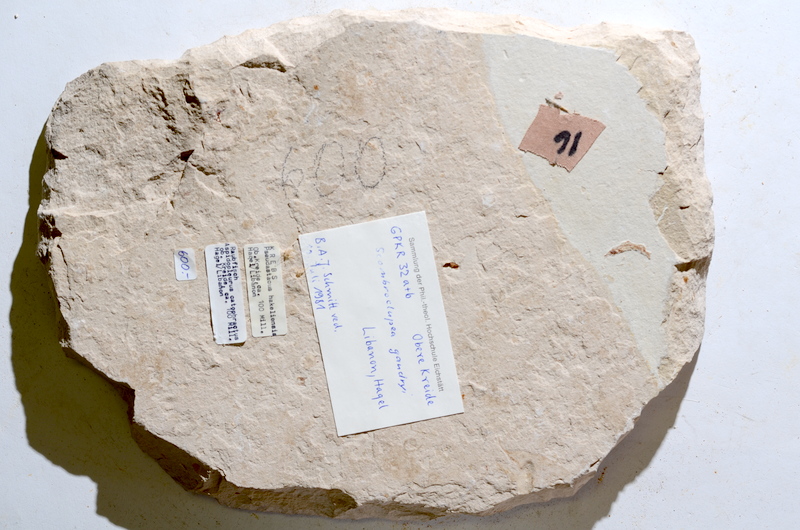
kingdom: Animalia
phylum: Chordata
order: Salmoniformes
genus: Ginsburgia
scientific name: Ginsburgia
